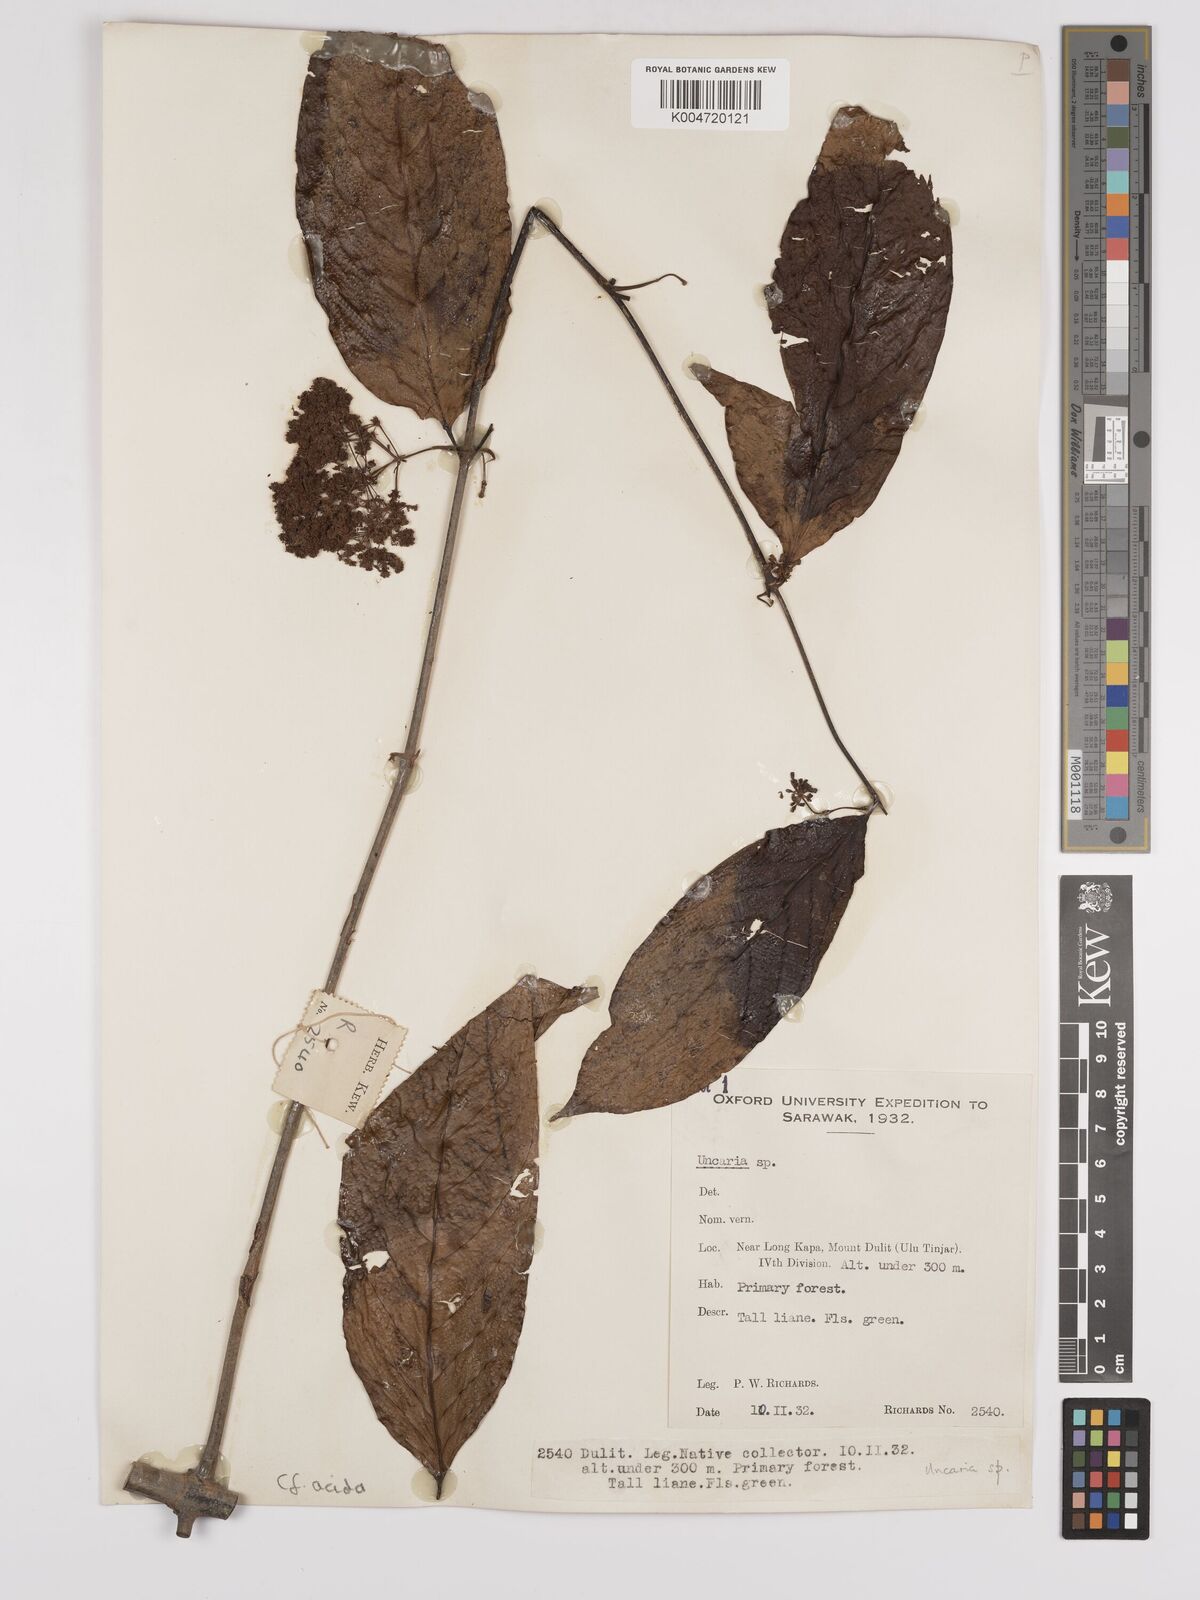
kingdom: Plantae
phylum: Tracheophyta
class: Magnoliopsida
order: Gentianales
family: Rubiaceae
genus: Uncaria
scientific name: Uncaria
